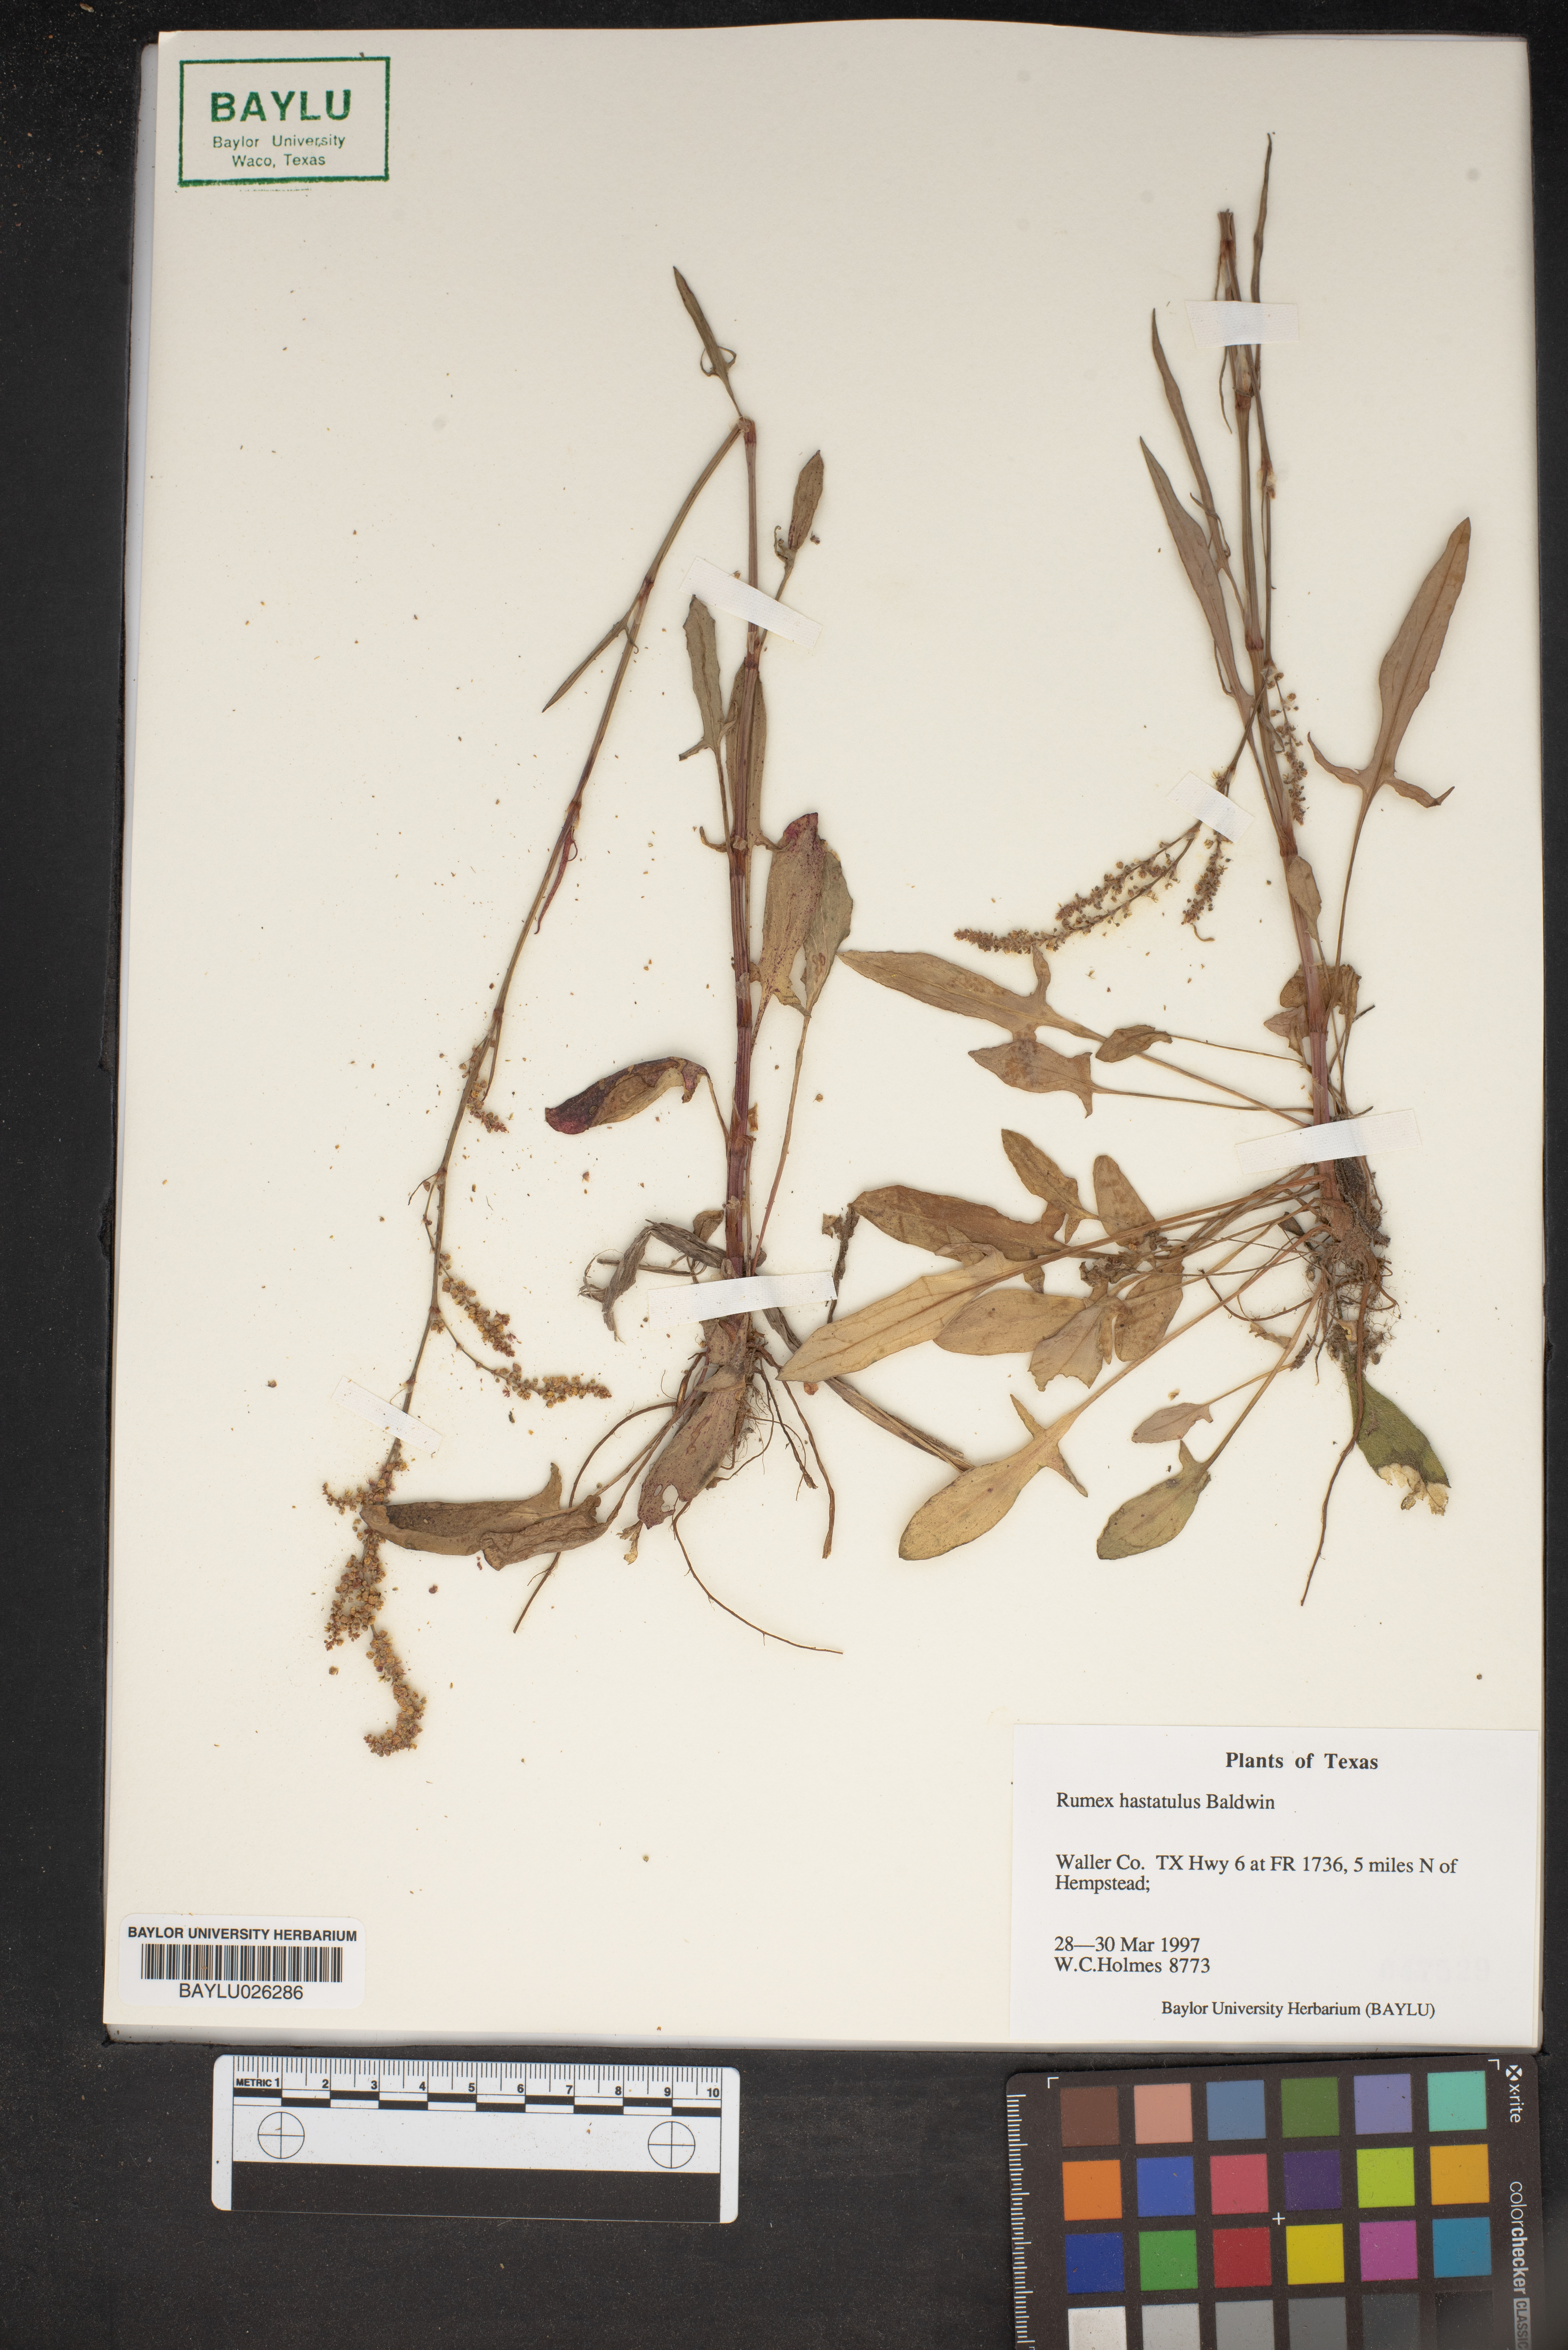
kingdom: Plantae
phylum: Tracheophyta
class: Magnoliopsida
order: Caryophyllales
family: Polygonaceae
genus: Rumex
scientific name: Rumex hastatulus
